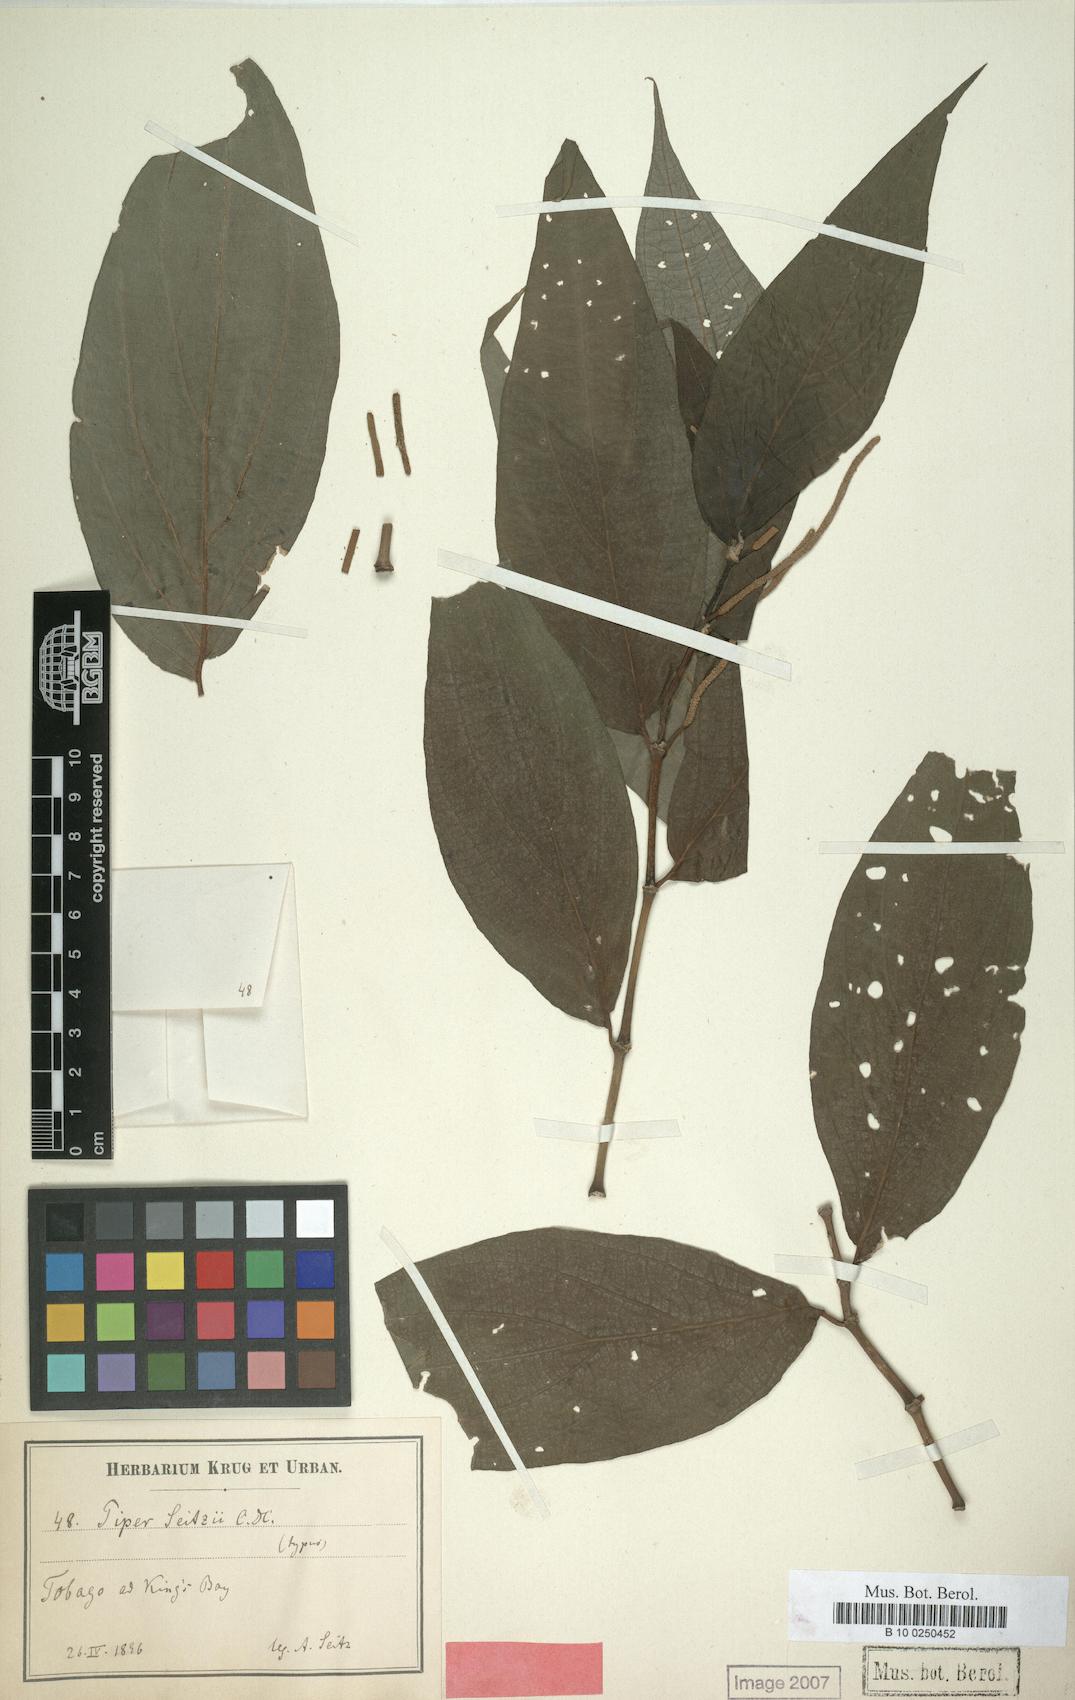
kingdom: Plantae
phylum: Tracheophyta
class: Magnoliopsida
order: Piperales
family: Piperaceae
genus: Piper
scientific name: Piper dilatatum
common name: Higuillo
